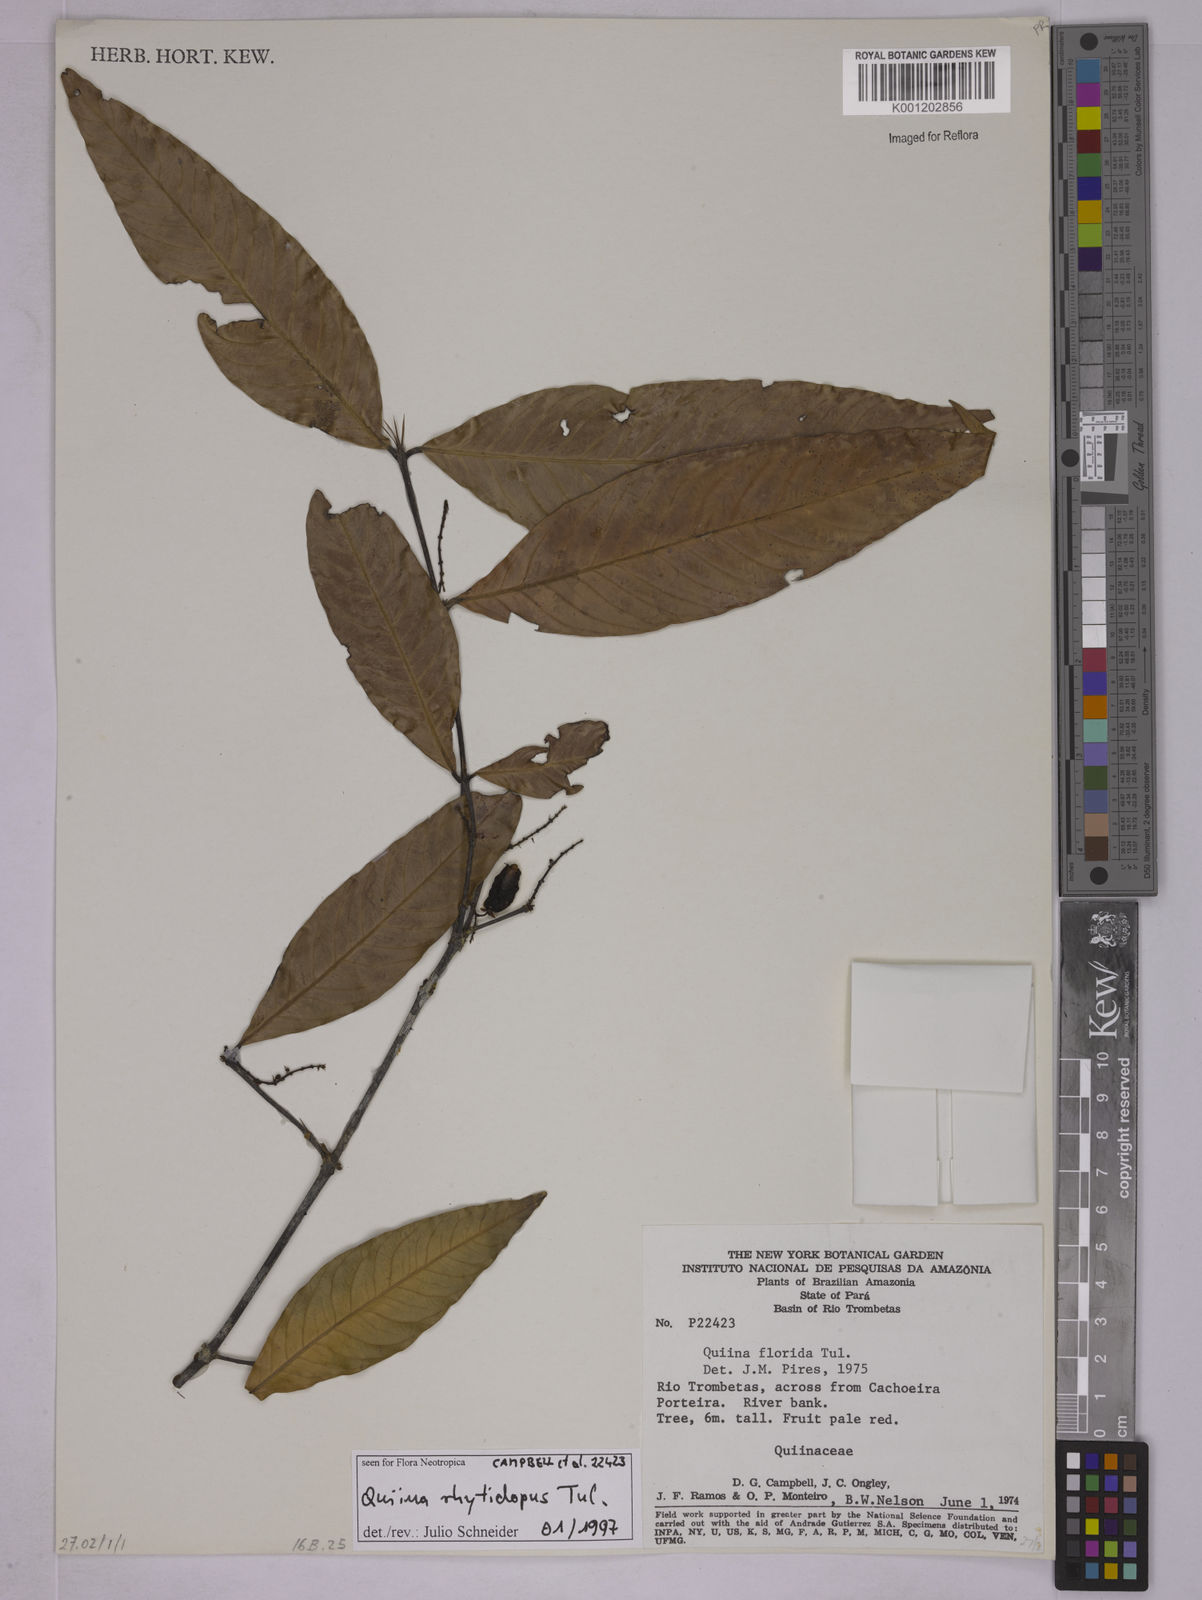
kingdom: Plantae
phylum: Tracheophyta
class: Magnoliopsida
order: Malpighiales
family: Quiinaceae
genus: Quiina
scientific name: Quiina rhytidopus
